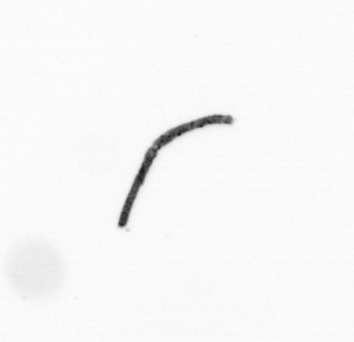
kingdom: Bacteria
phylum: Cyanobacteria
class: Cyanobacteriia
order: Cyanobacteriales
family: Microcoleaceae
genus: Trichodesmium
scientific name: Trichodesmium
